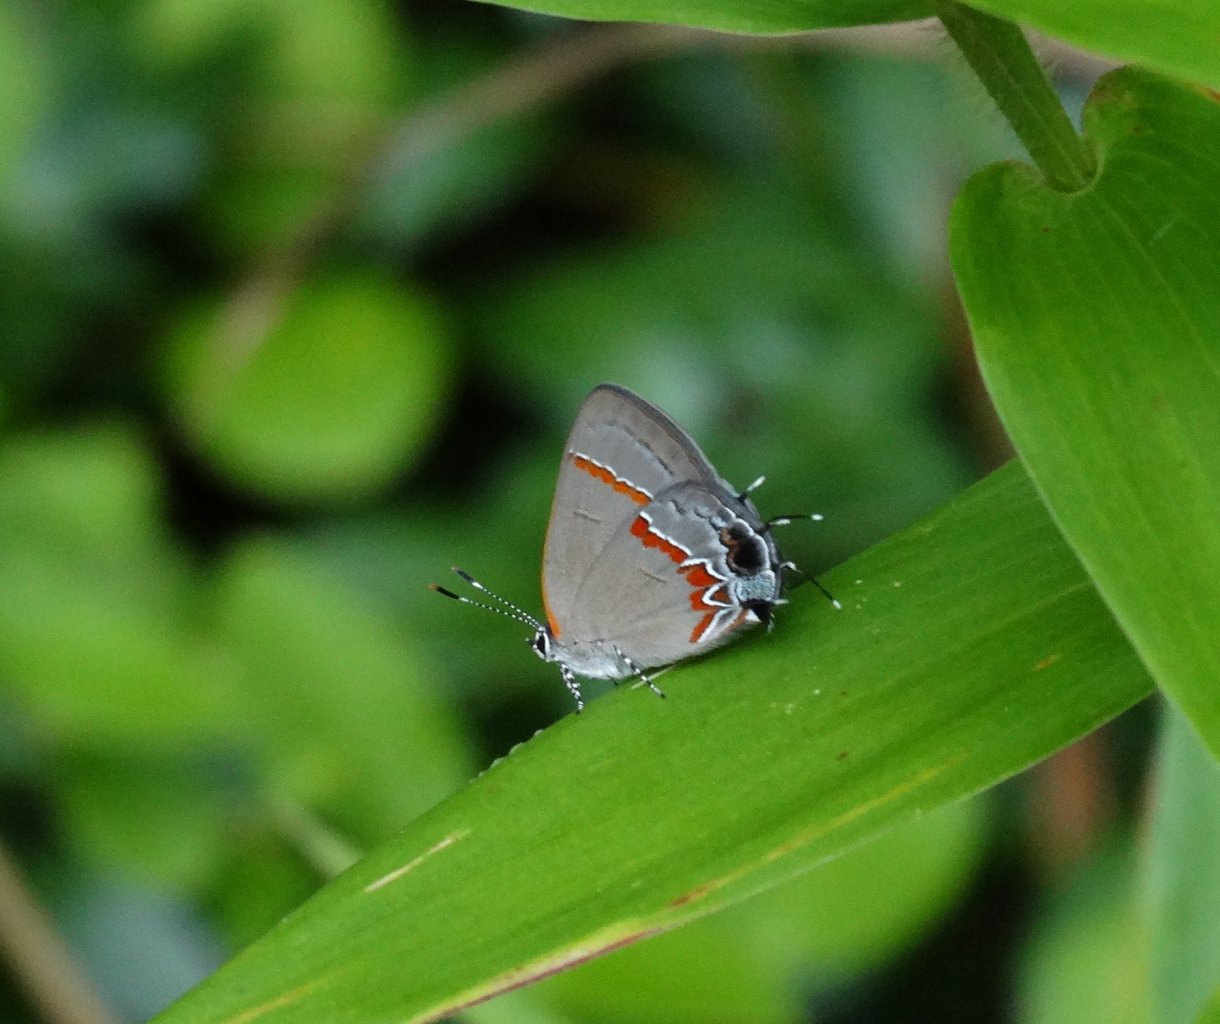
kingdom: Animalia
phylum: Arthropoda
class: Insecta
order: Lepidoptera
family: Lycaenidae
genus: Calycopis
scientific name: Calycopis cecrops
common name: Red-banded Hairstreak
